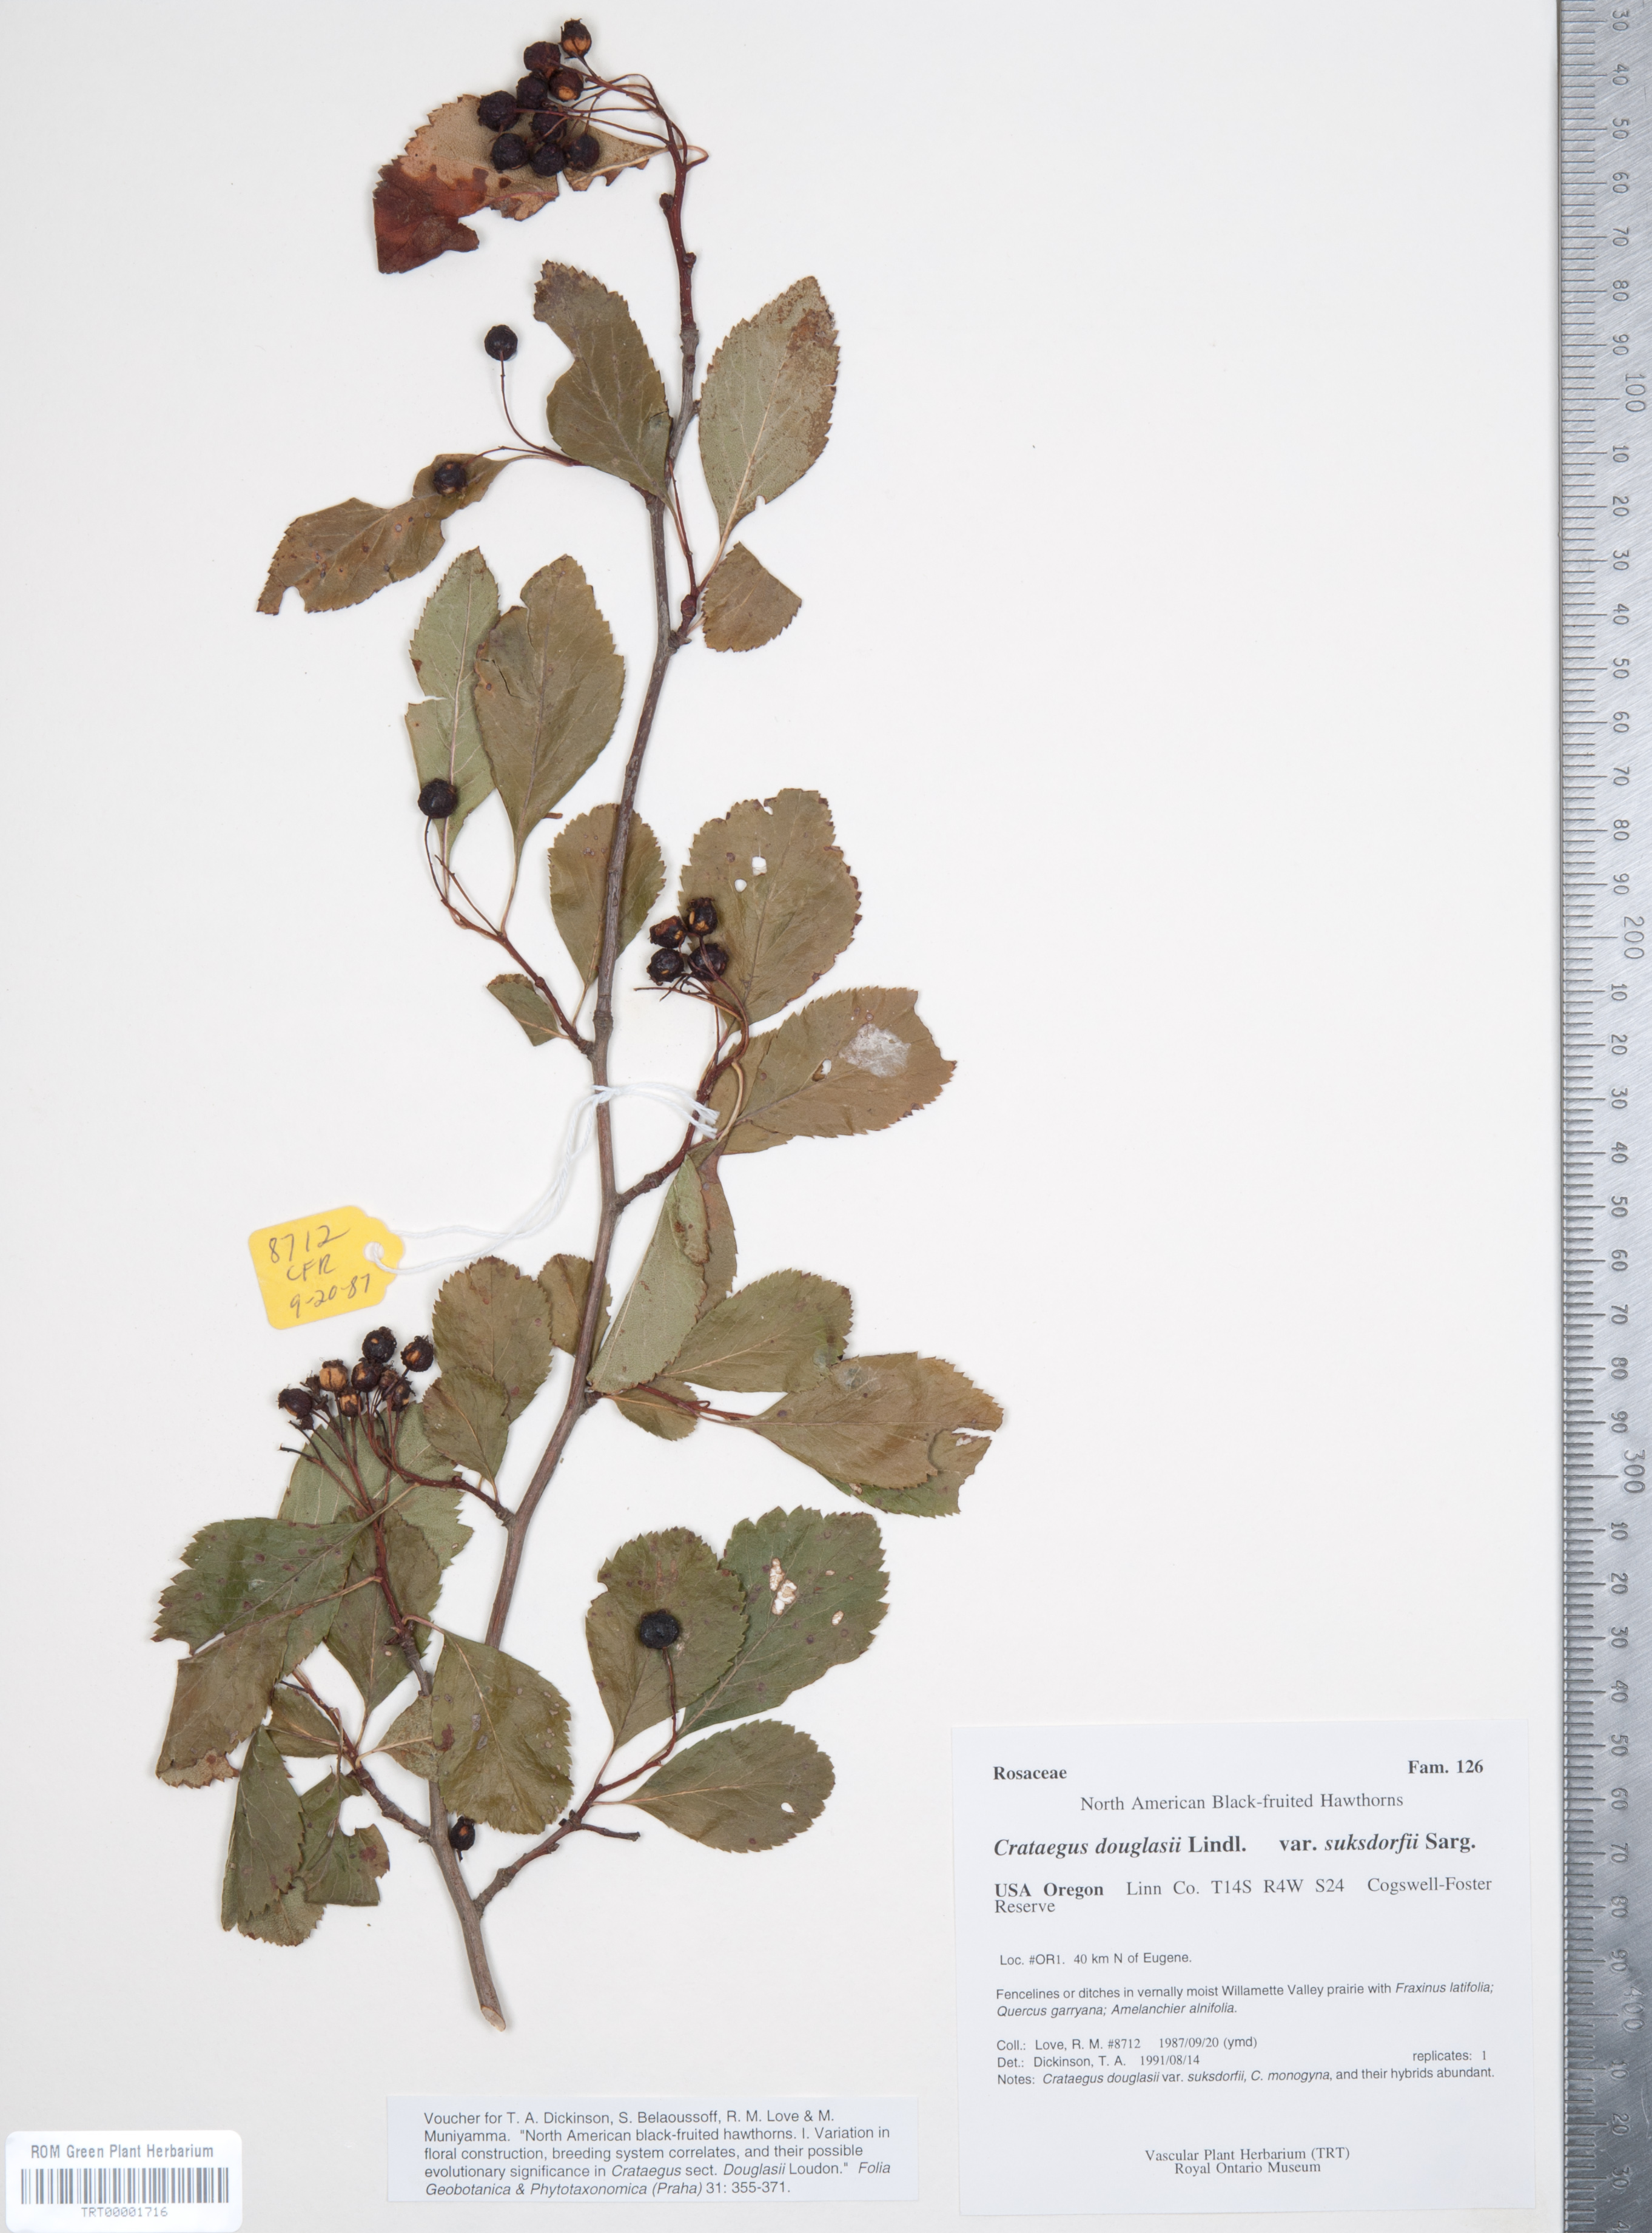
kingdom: Plantae
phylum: Tracheophyta
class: Magnoliopsida
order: Rosales
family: Rosaceae
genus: Crataegus
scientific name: Crataegus gaylussacia
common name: Huckleberry hawthorn
